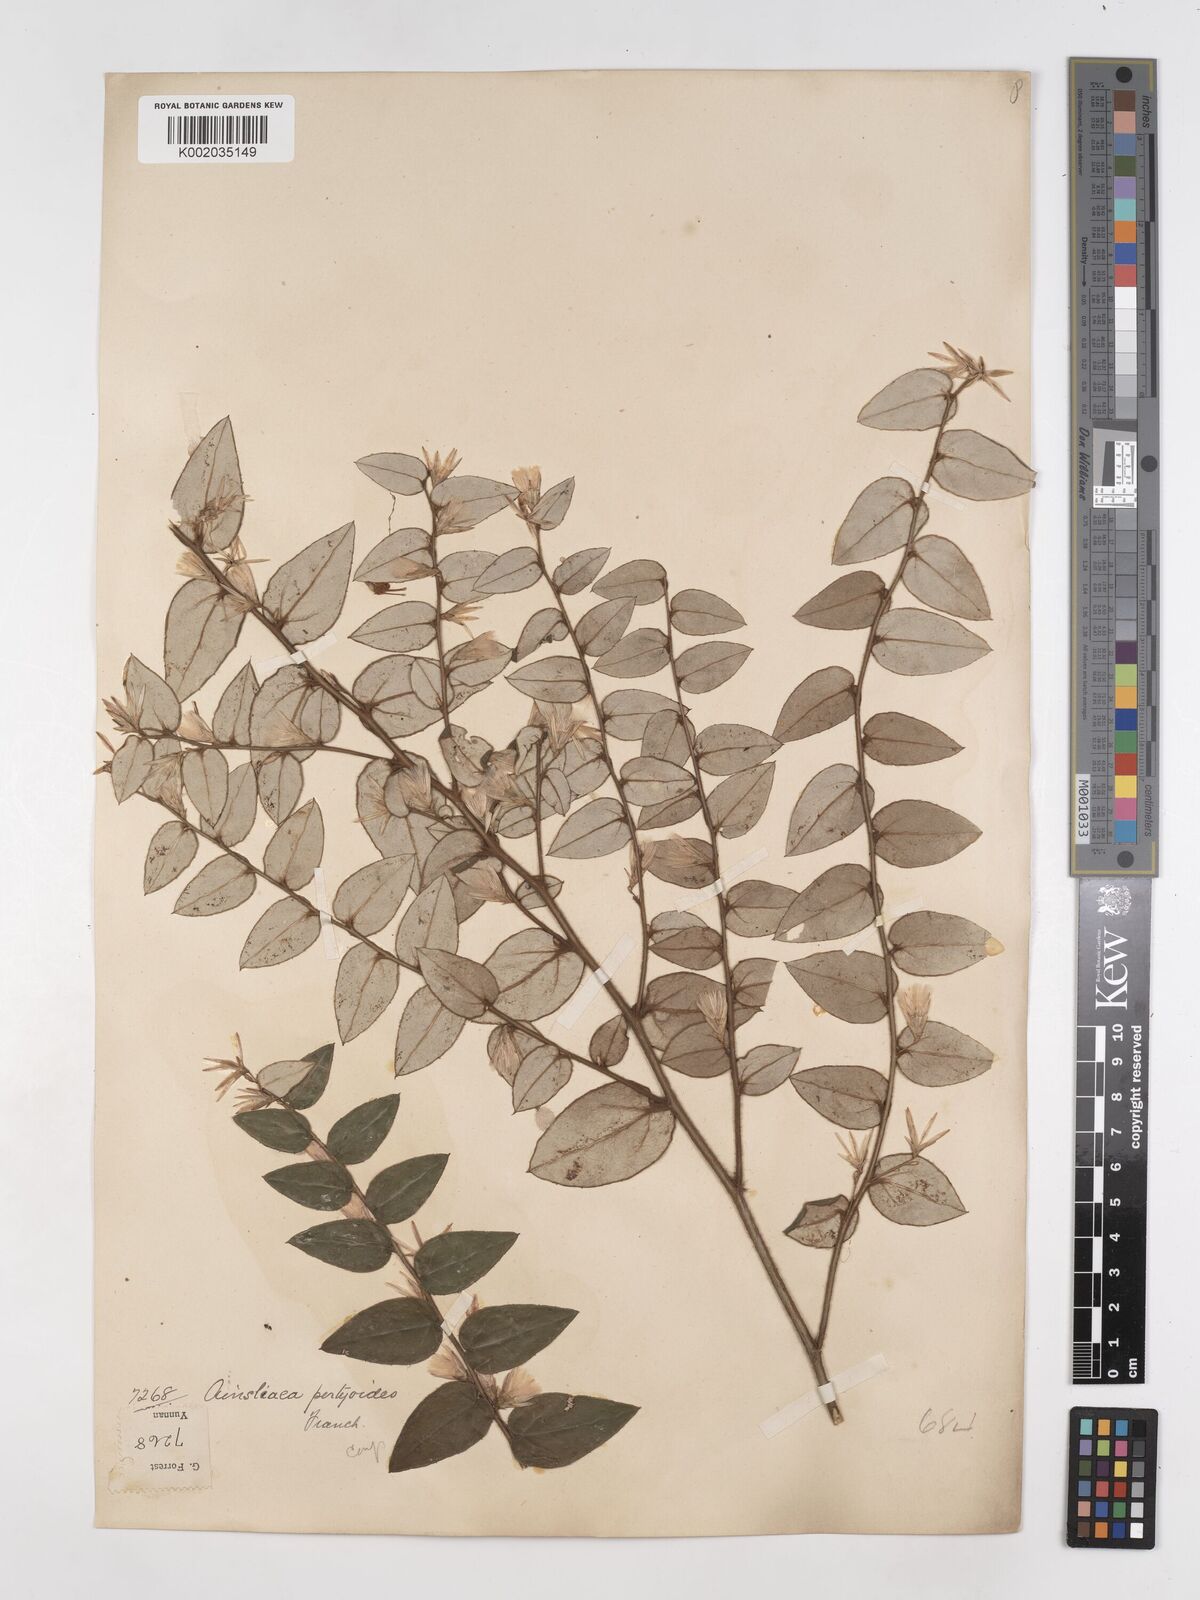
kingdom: Plantae
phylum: Tracheophyta
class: Magnoliopsida
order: Asterales
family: Asteraceae
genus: Ainsliaea
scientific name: Ainsliaea pertyoides
